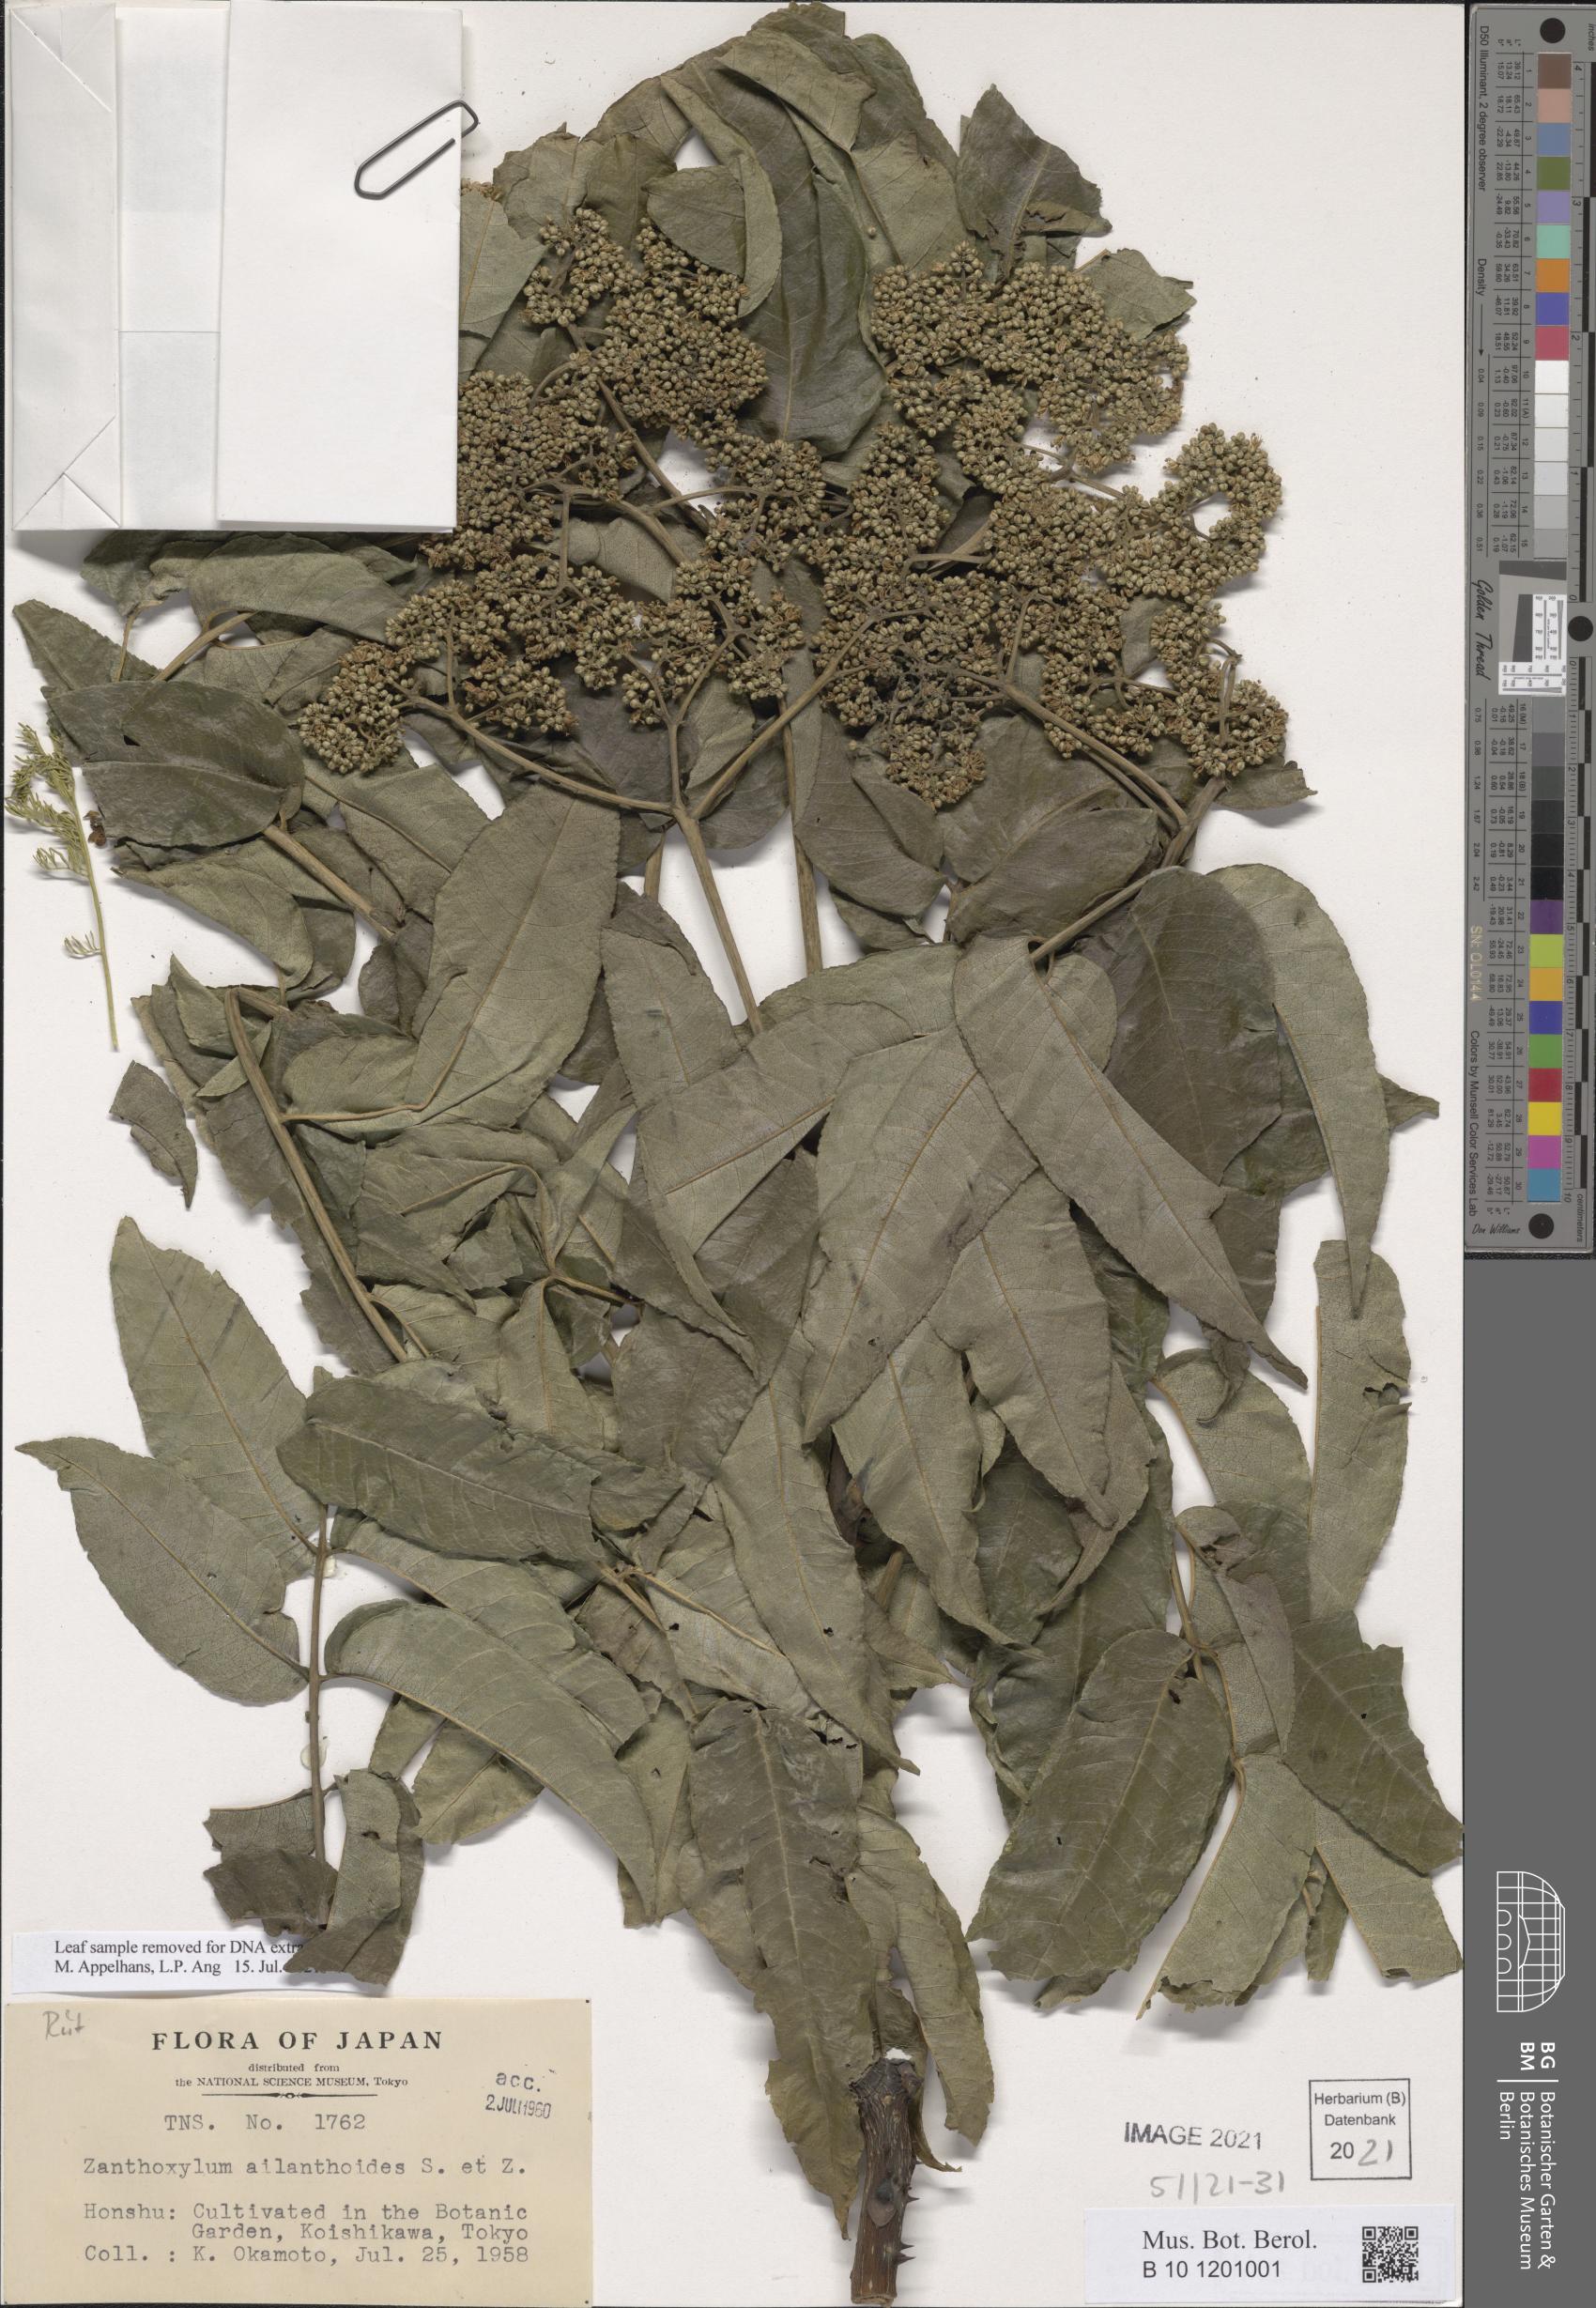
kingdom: Plantae
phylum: Tracheophyta
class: Magnoliopsida
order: Sapindales
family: Rutaceae
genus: Zanthoxylum
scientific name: Zanthoxylum ailanthoides
